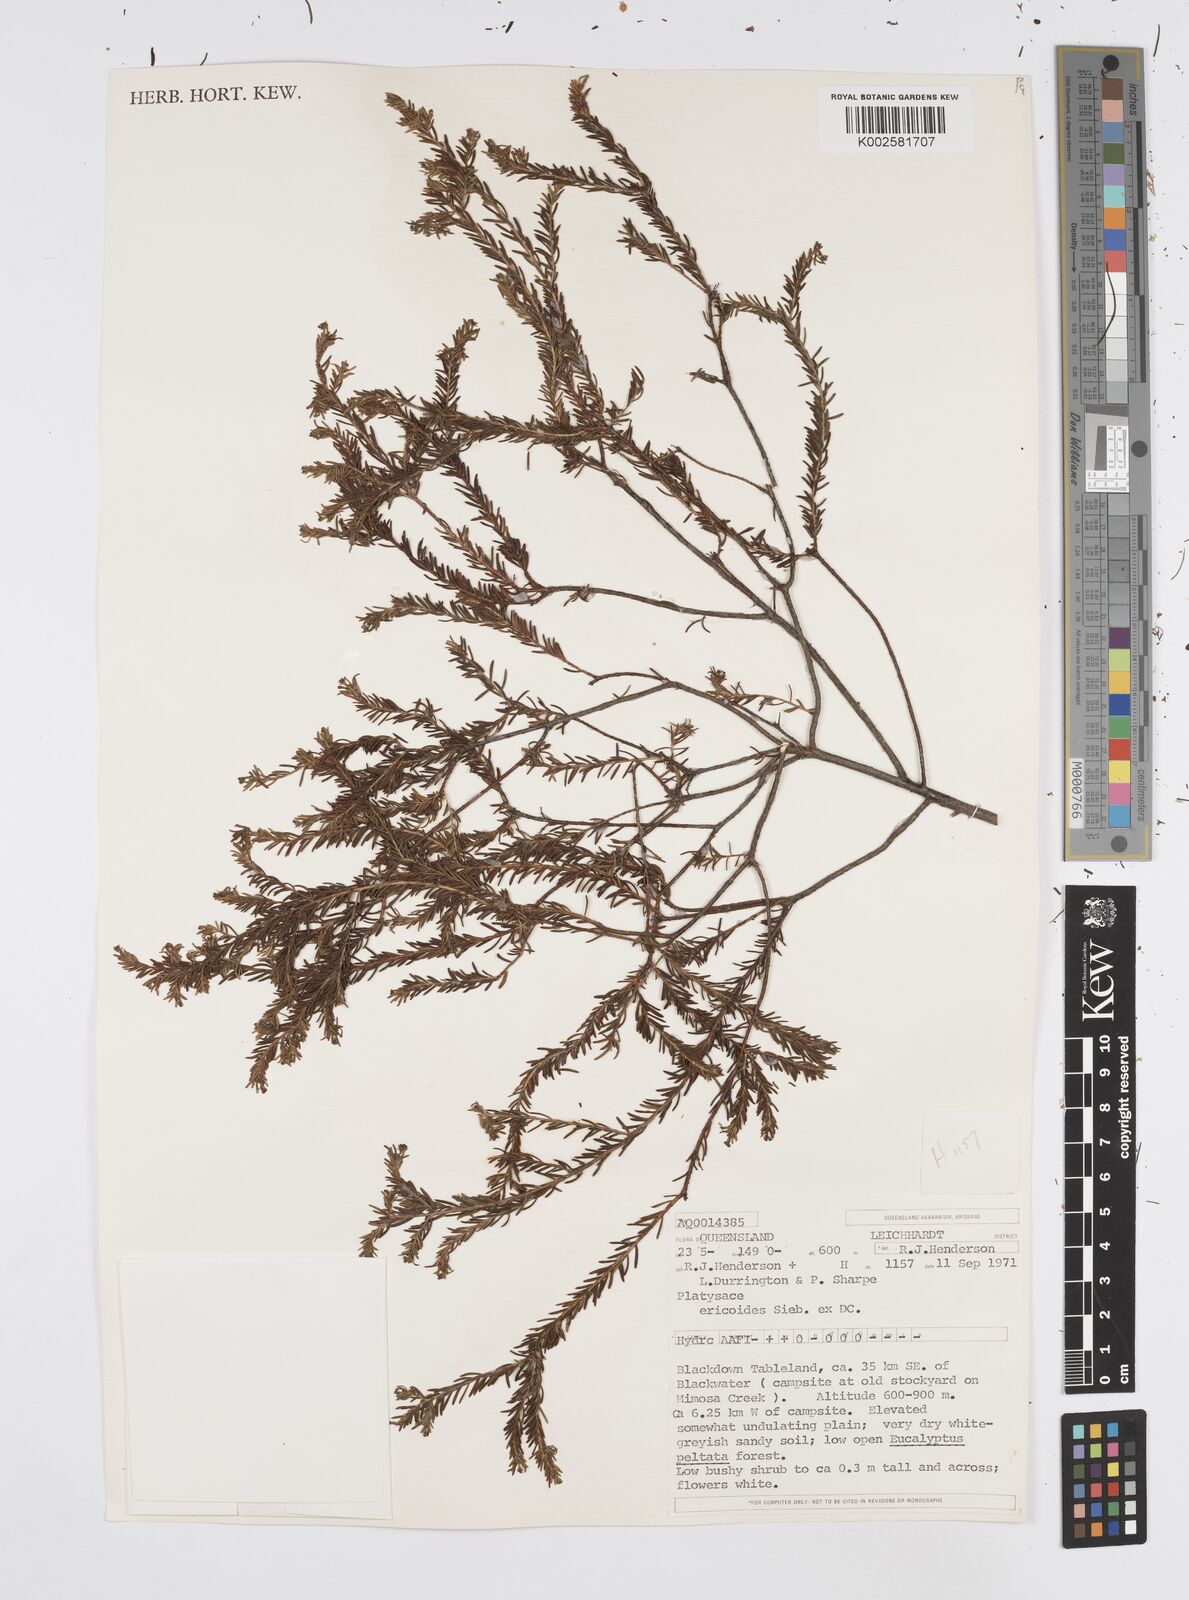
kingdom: Plantae
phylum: Tracheophyta
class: Magnoliopsida
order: Apiales
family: Apiaceae
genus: Platysace
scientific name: Platysace ericoides
